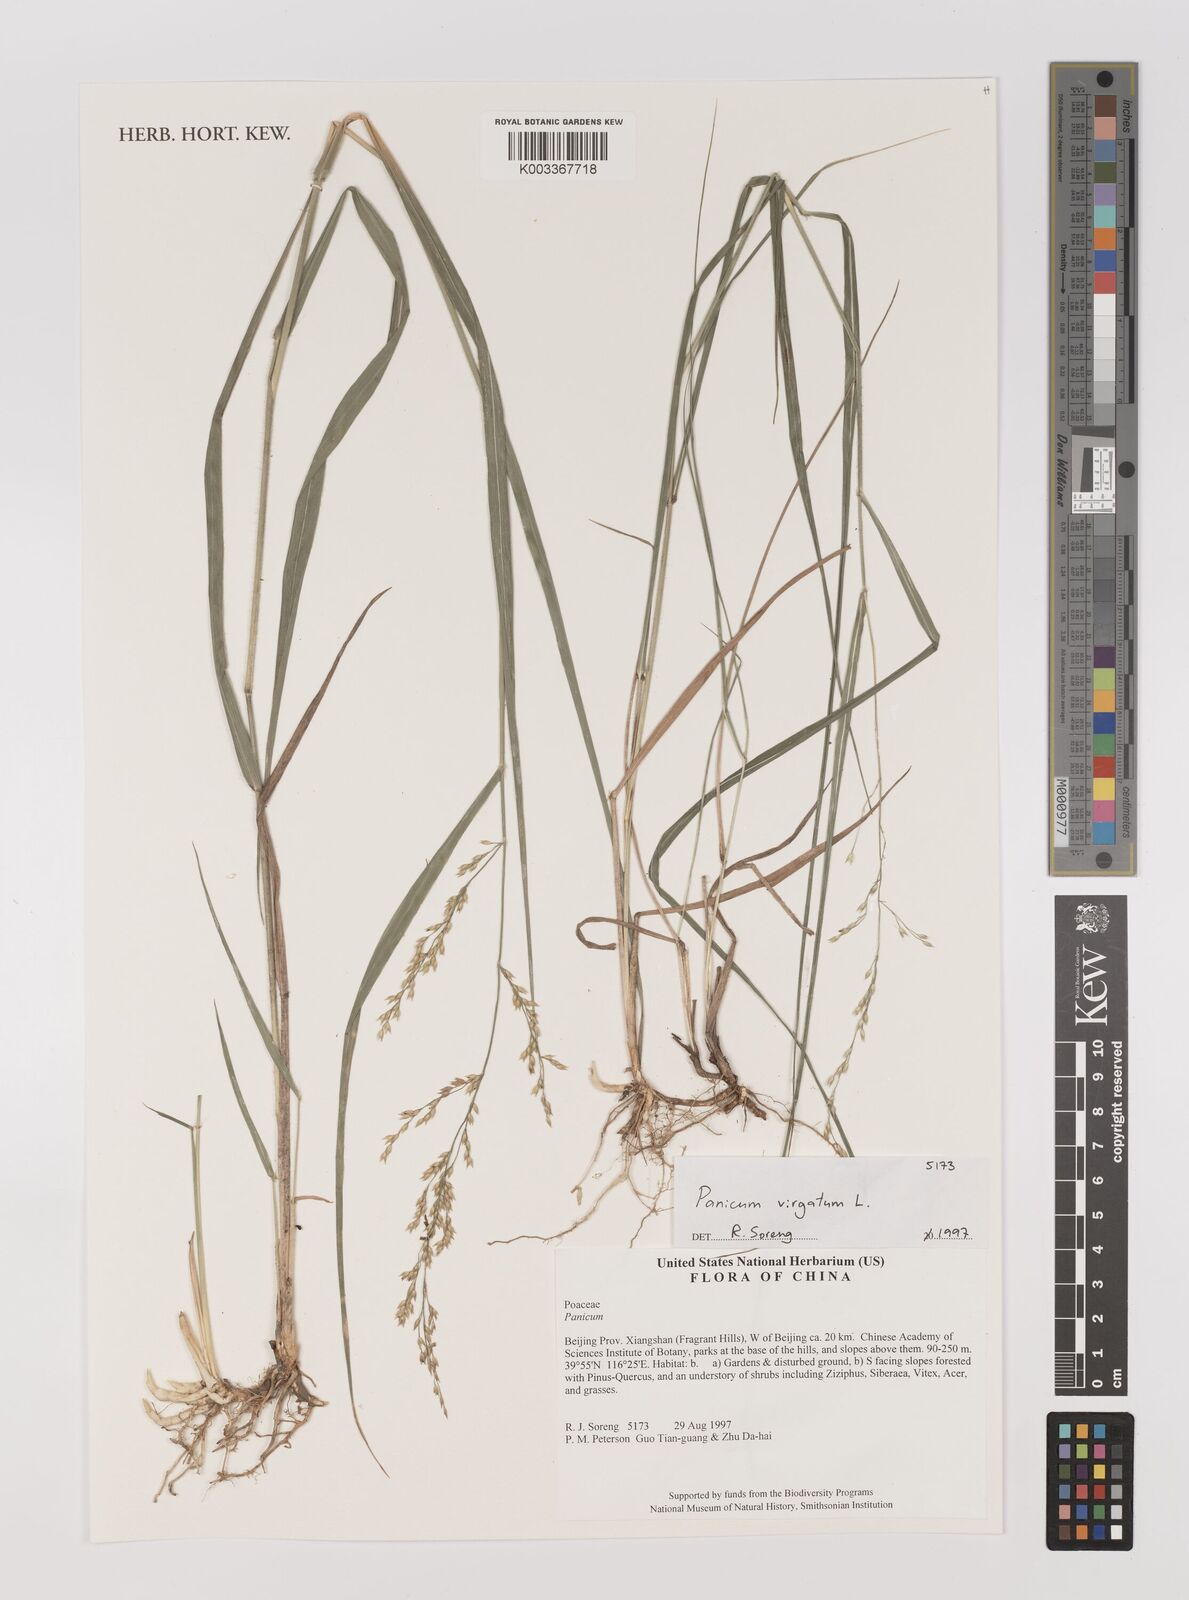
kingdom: Plantae
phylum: Tracheophyta
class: Liliopsida
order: Poales
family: Poaceae
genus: Panicum
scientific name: Panicum virgatum
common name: Switchgrass
